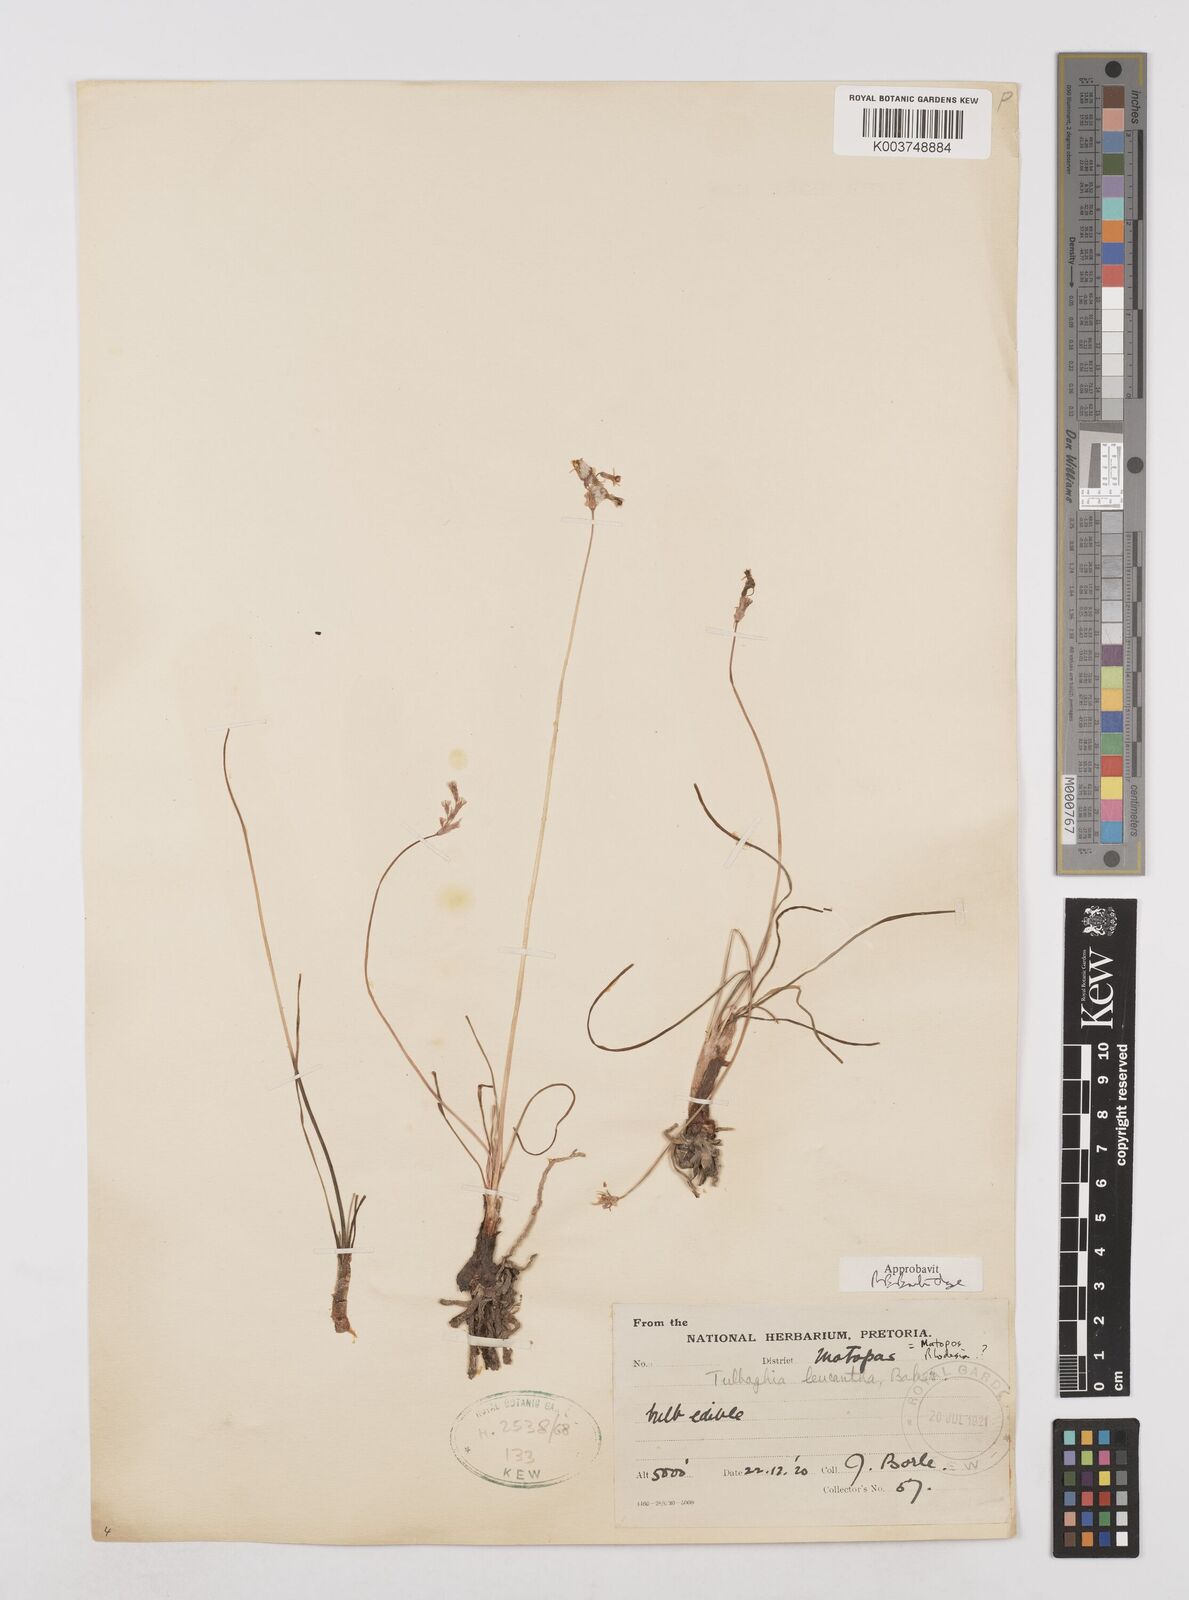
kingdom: Plantae
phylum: Tracheophyta
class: Liliopsida
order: Asparagales
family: Amaryllidaceae
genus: Tulbaghia
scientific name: Tulbaghia leucantha
